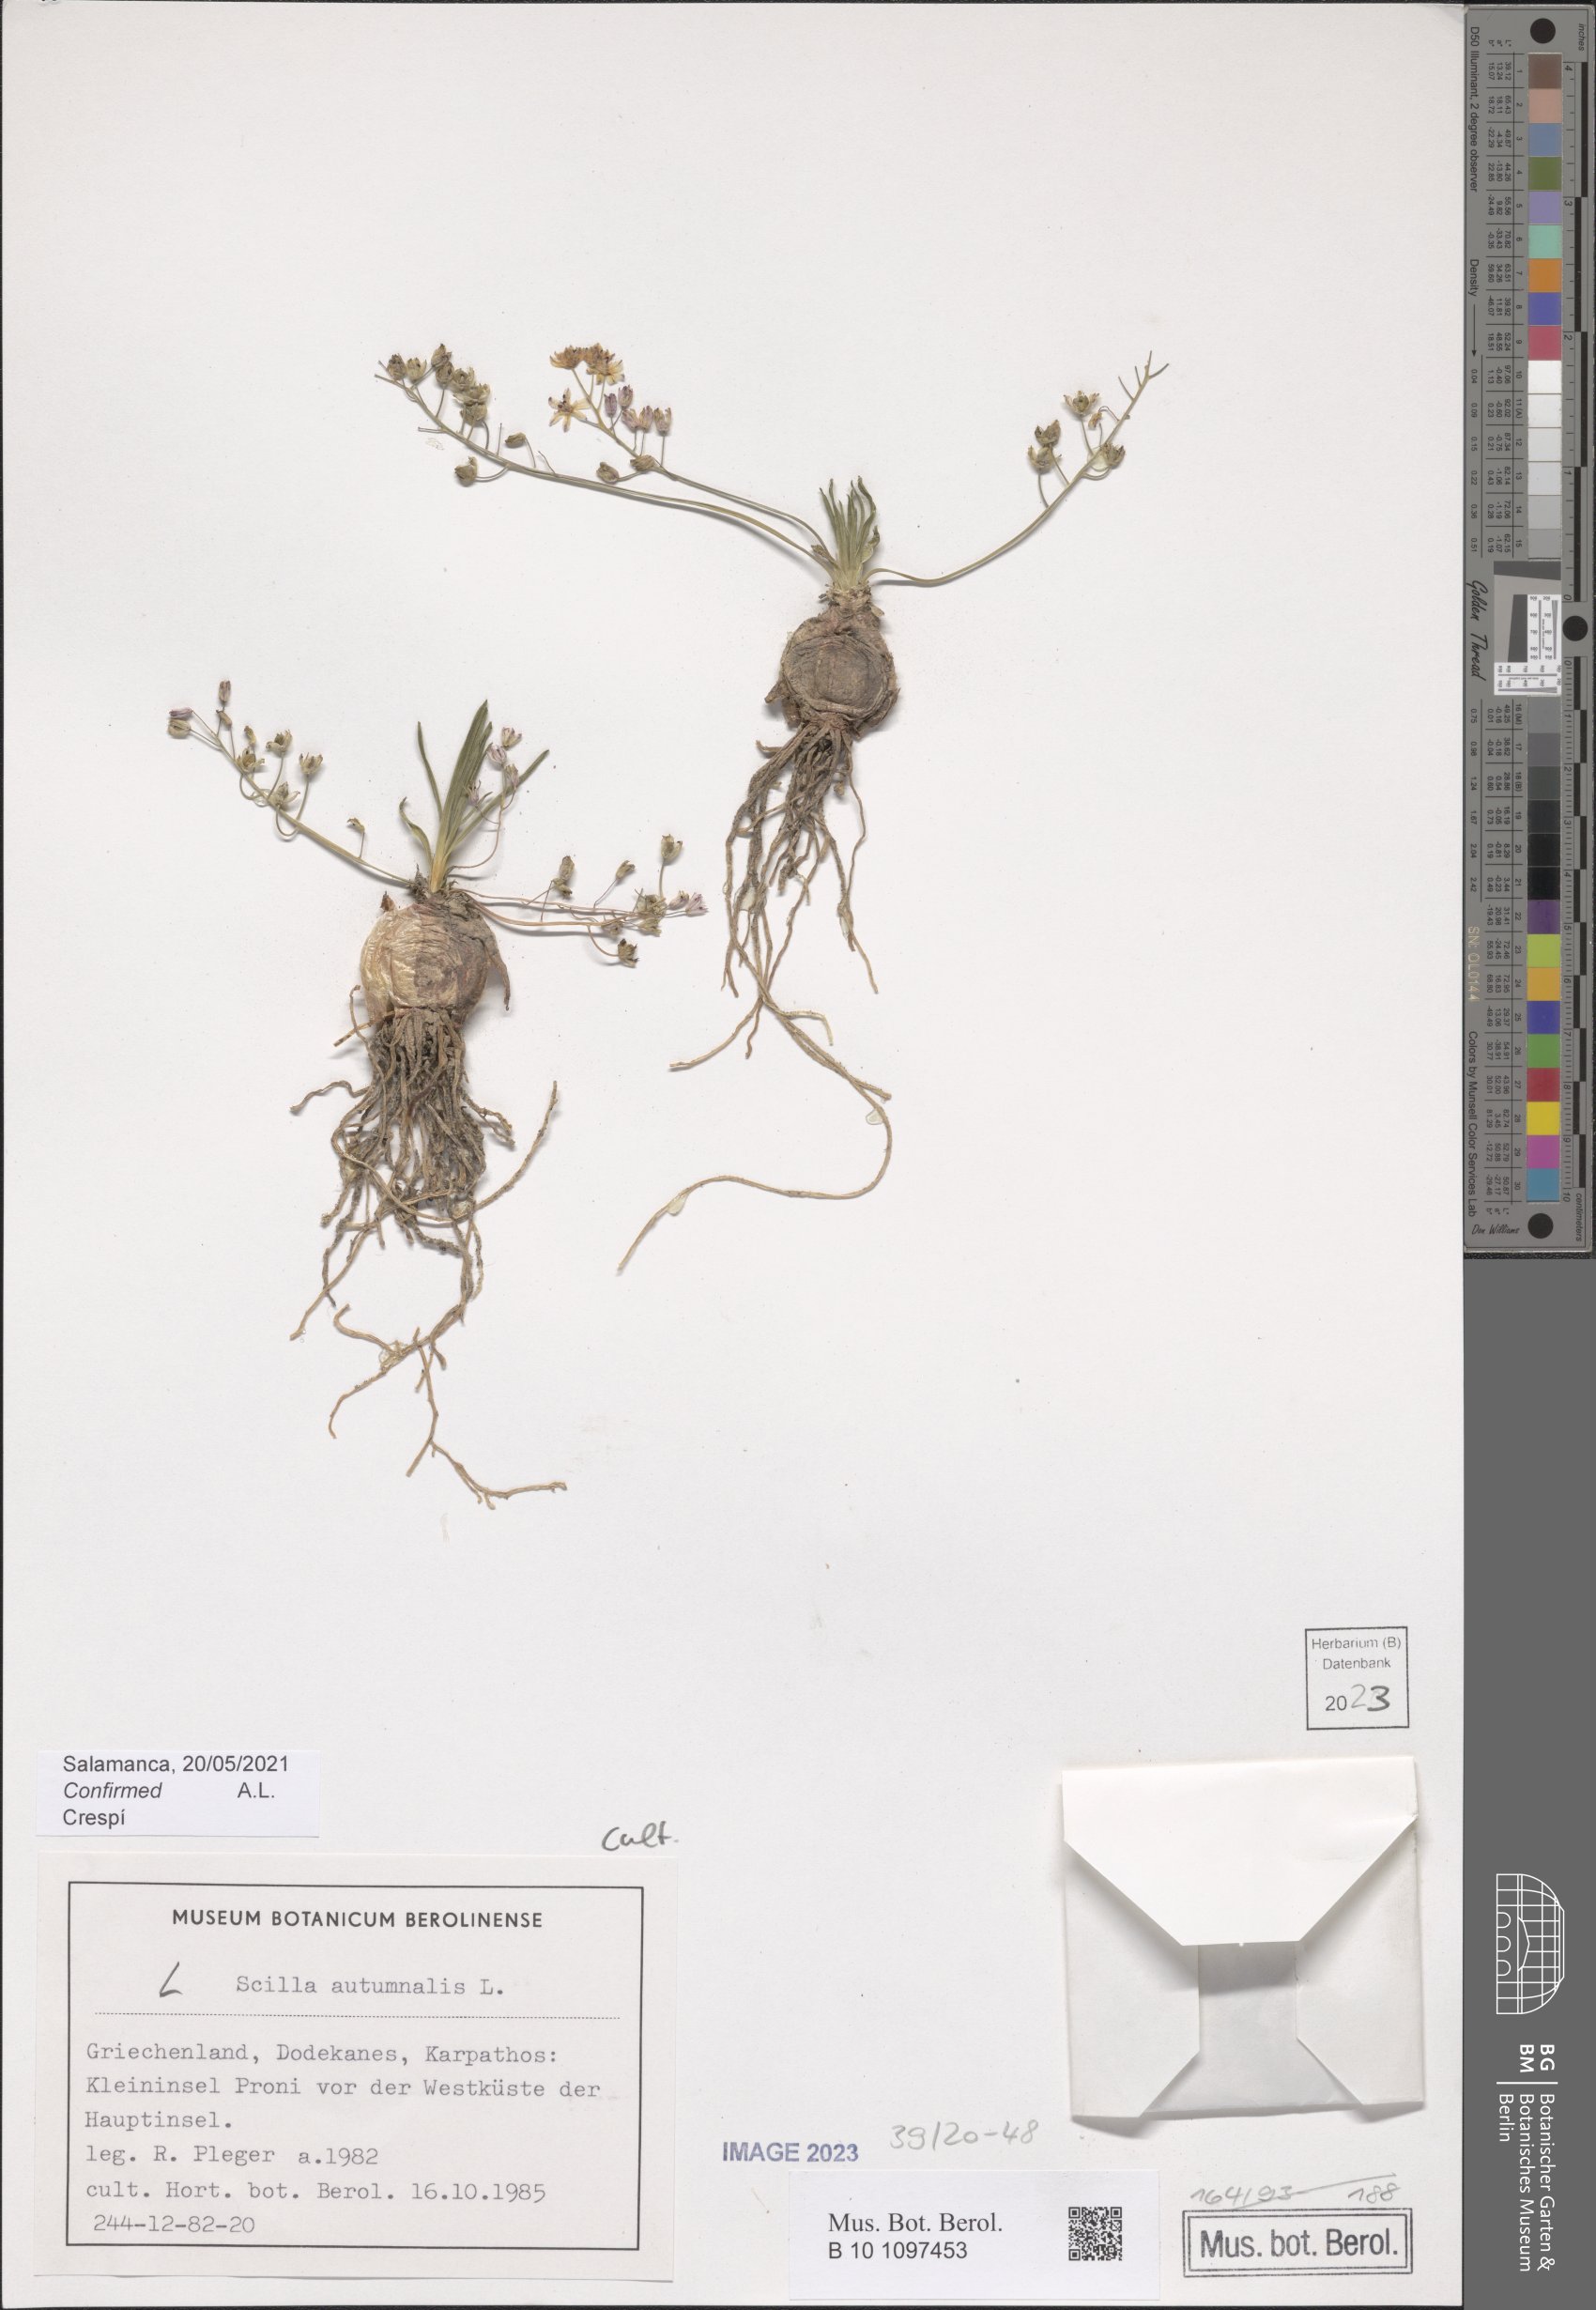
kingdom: Plantae
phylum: Tracheophyta
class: Liliopsida
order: Asparagales
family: Asparagaceae
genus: Prospero
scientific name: Prospero autumnale
